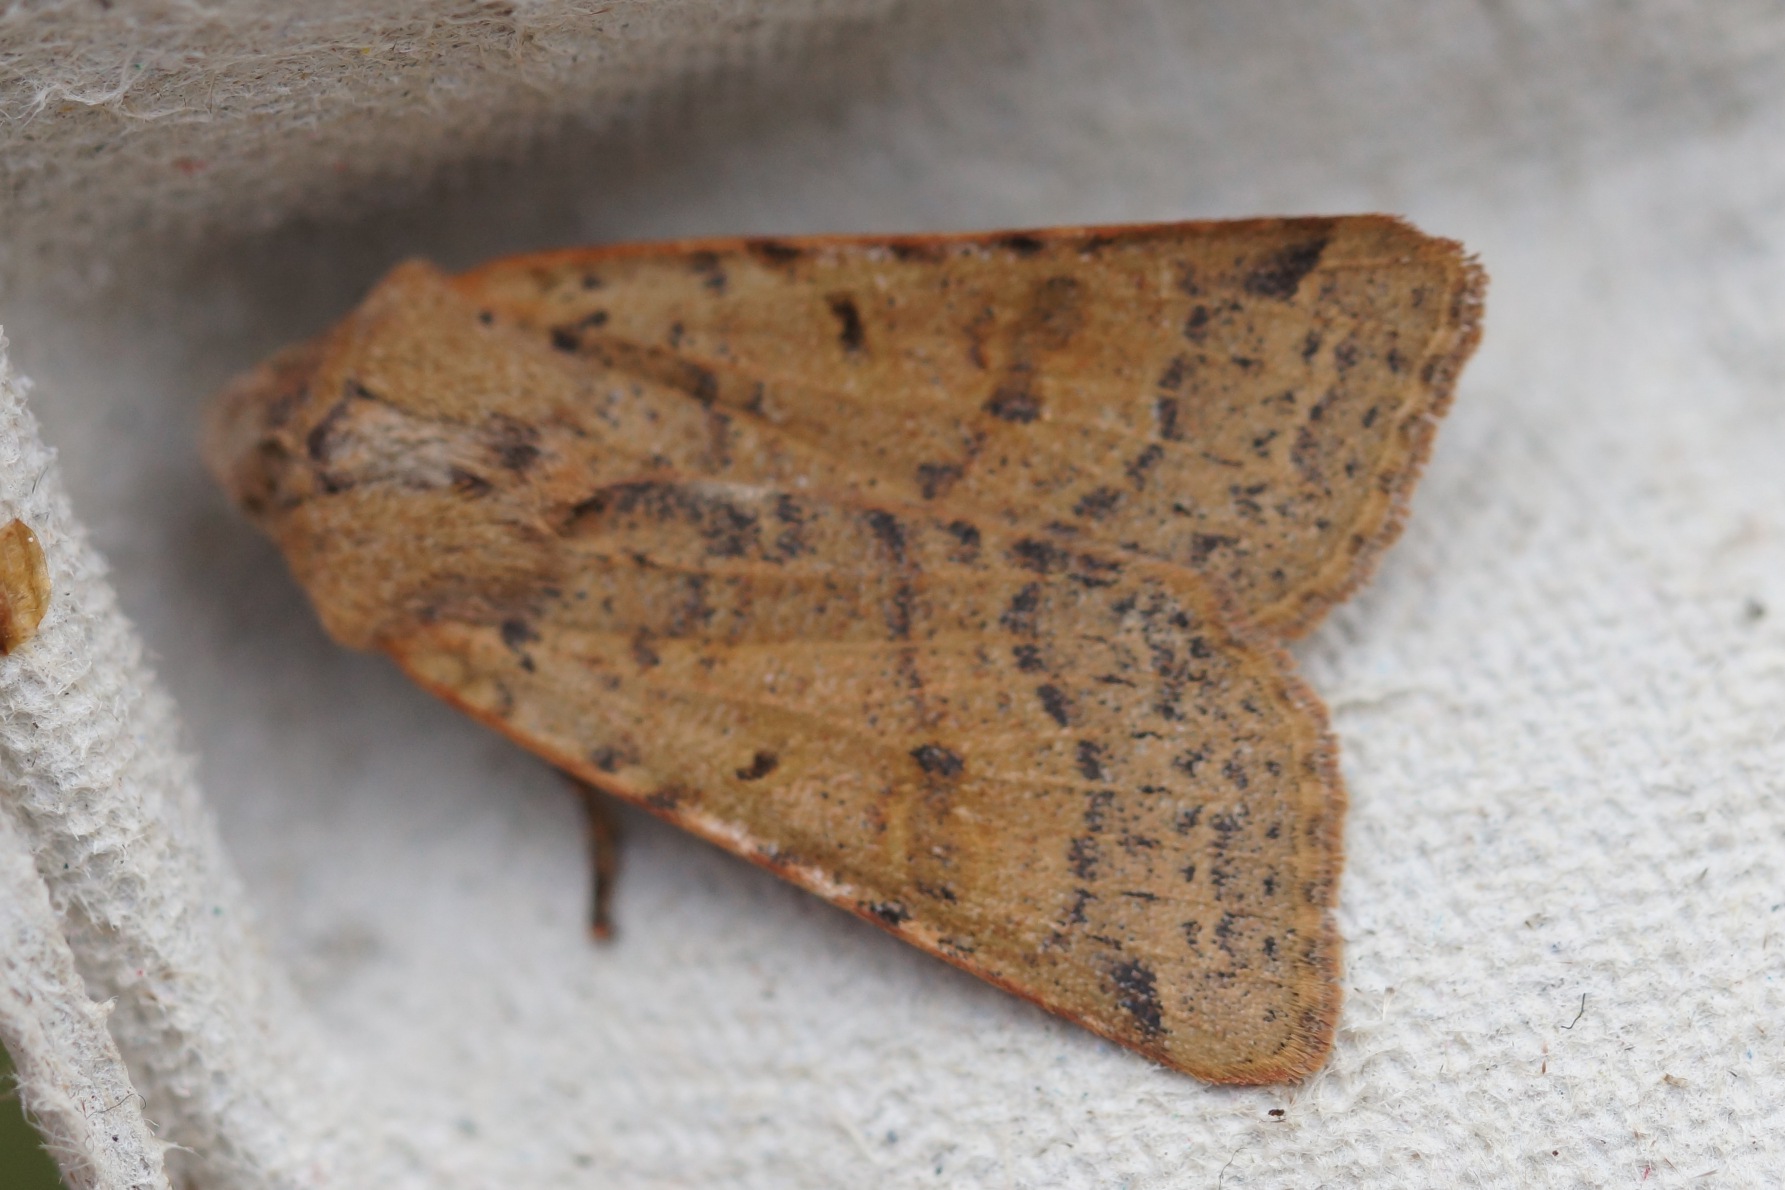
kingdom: Animalia
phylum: Arthropoda
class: Insecta
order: Lepidoptera
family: Noctuidae
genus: Agrochola
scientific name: Agrochola lychnidis
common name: Foranderlig jordfarveugle
